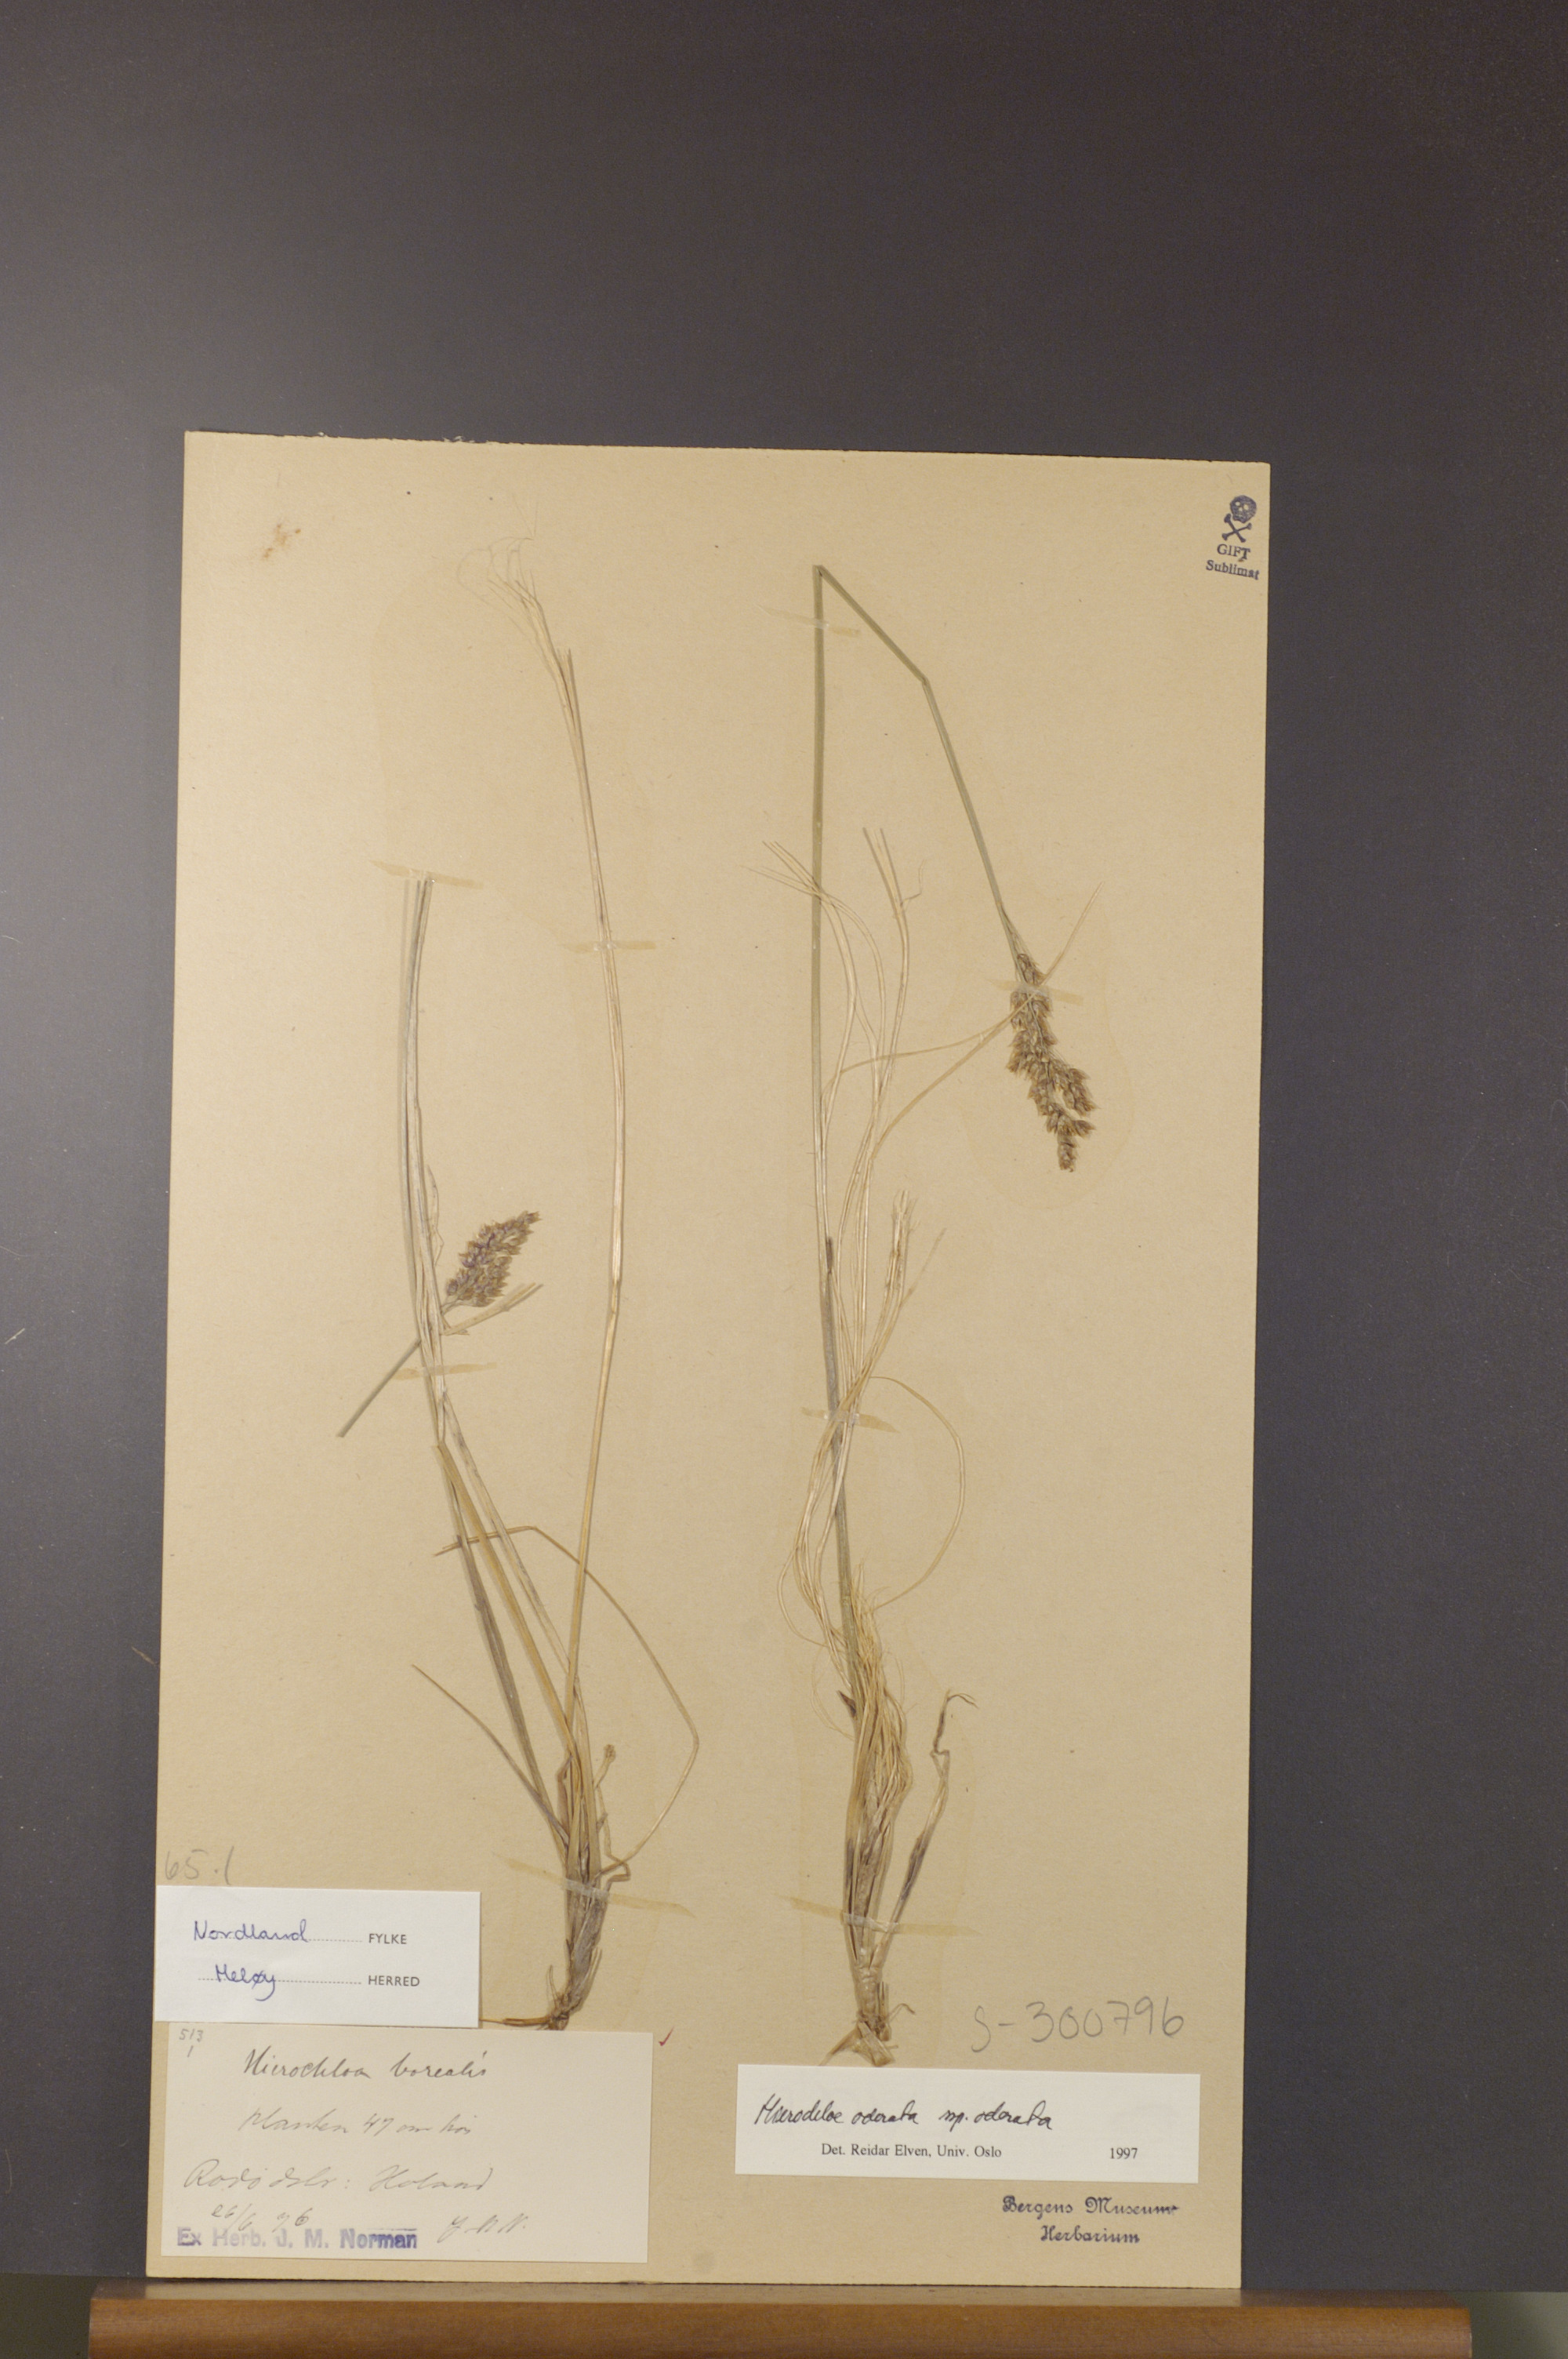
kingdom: Plantae
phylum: Tracheophyta
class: Liliopsida
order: Poales
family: Poaceae
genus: Anthoxanthum
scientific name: Anthoxanthum nitens
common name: Holy grass
